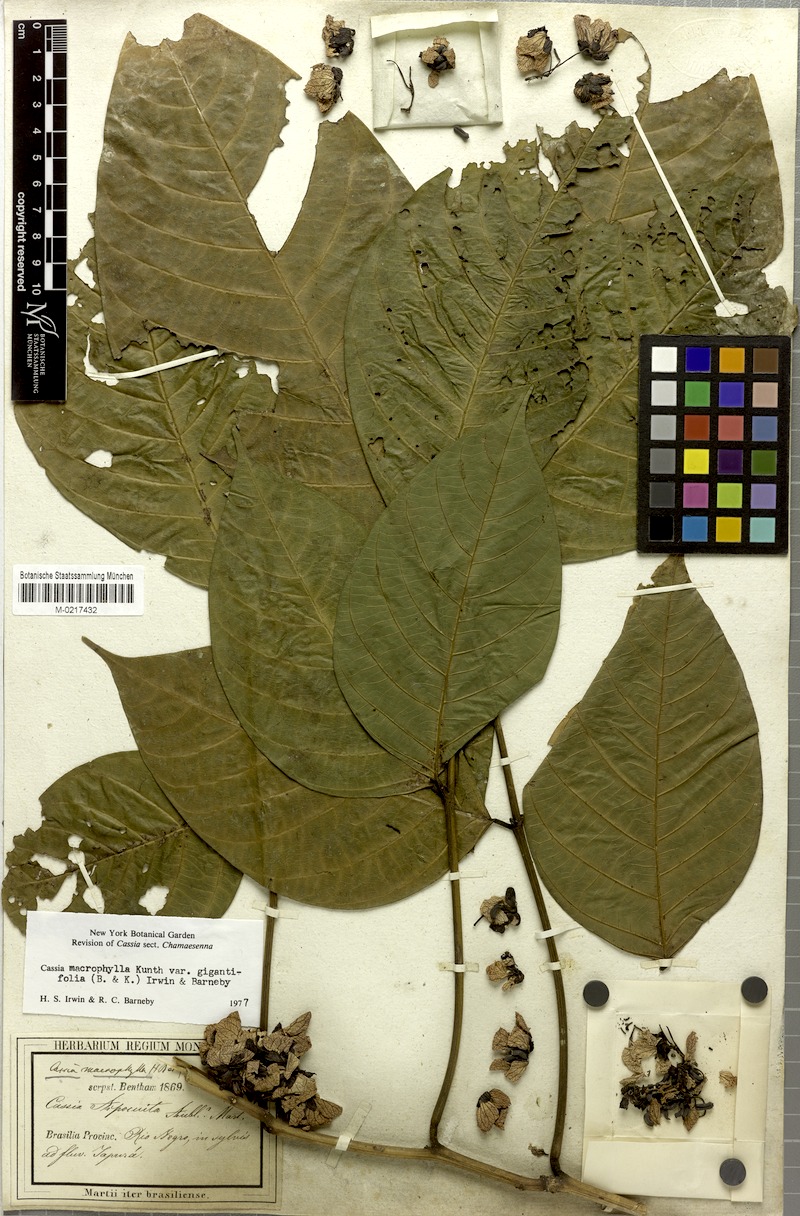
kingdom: Plantae
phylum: Tracheophyta
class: Magnoliopsida
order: Fabales
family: Fabaceae
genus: Senna
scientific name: Senna macrophylla
